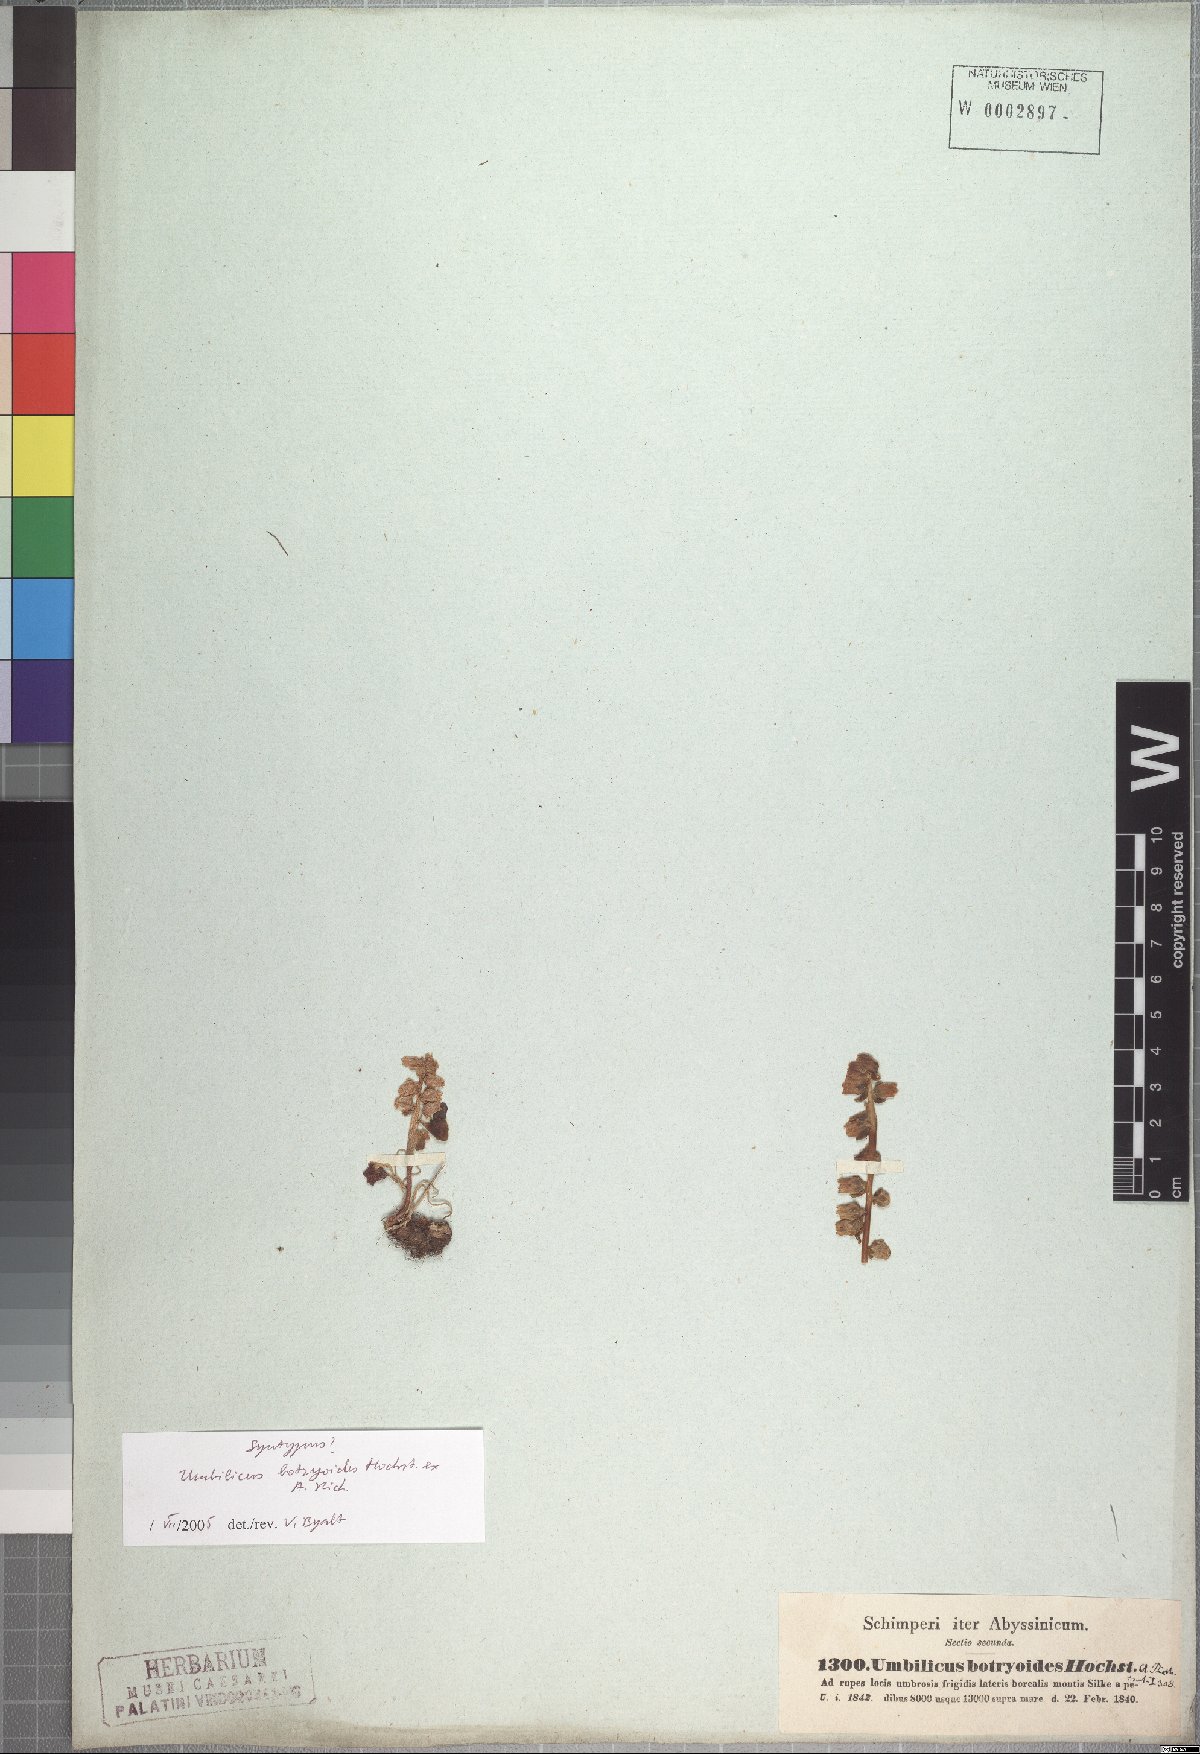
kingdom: Plantae
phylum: Tracheophyta
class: Magnoliopsida
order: Saxifragales
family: Crassulaceae
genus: Umbilicus
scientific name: Umbilicus botryoides
